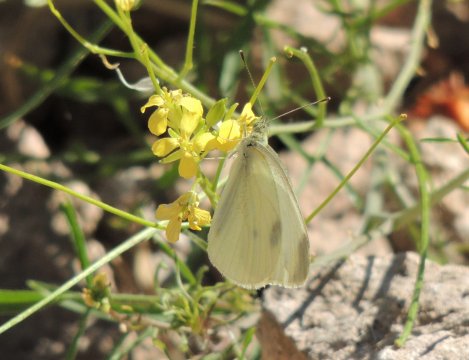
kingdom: Animalia
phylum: Arthropoda
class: Insecta
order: Lepidoptera
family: Pieridae
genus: Pieris
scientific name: Pieris rapae
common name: Cabbage White
